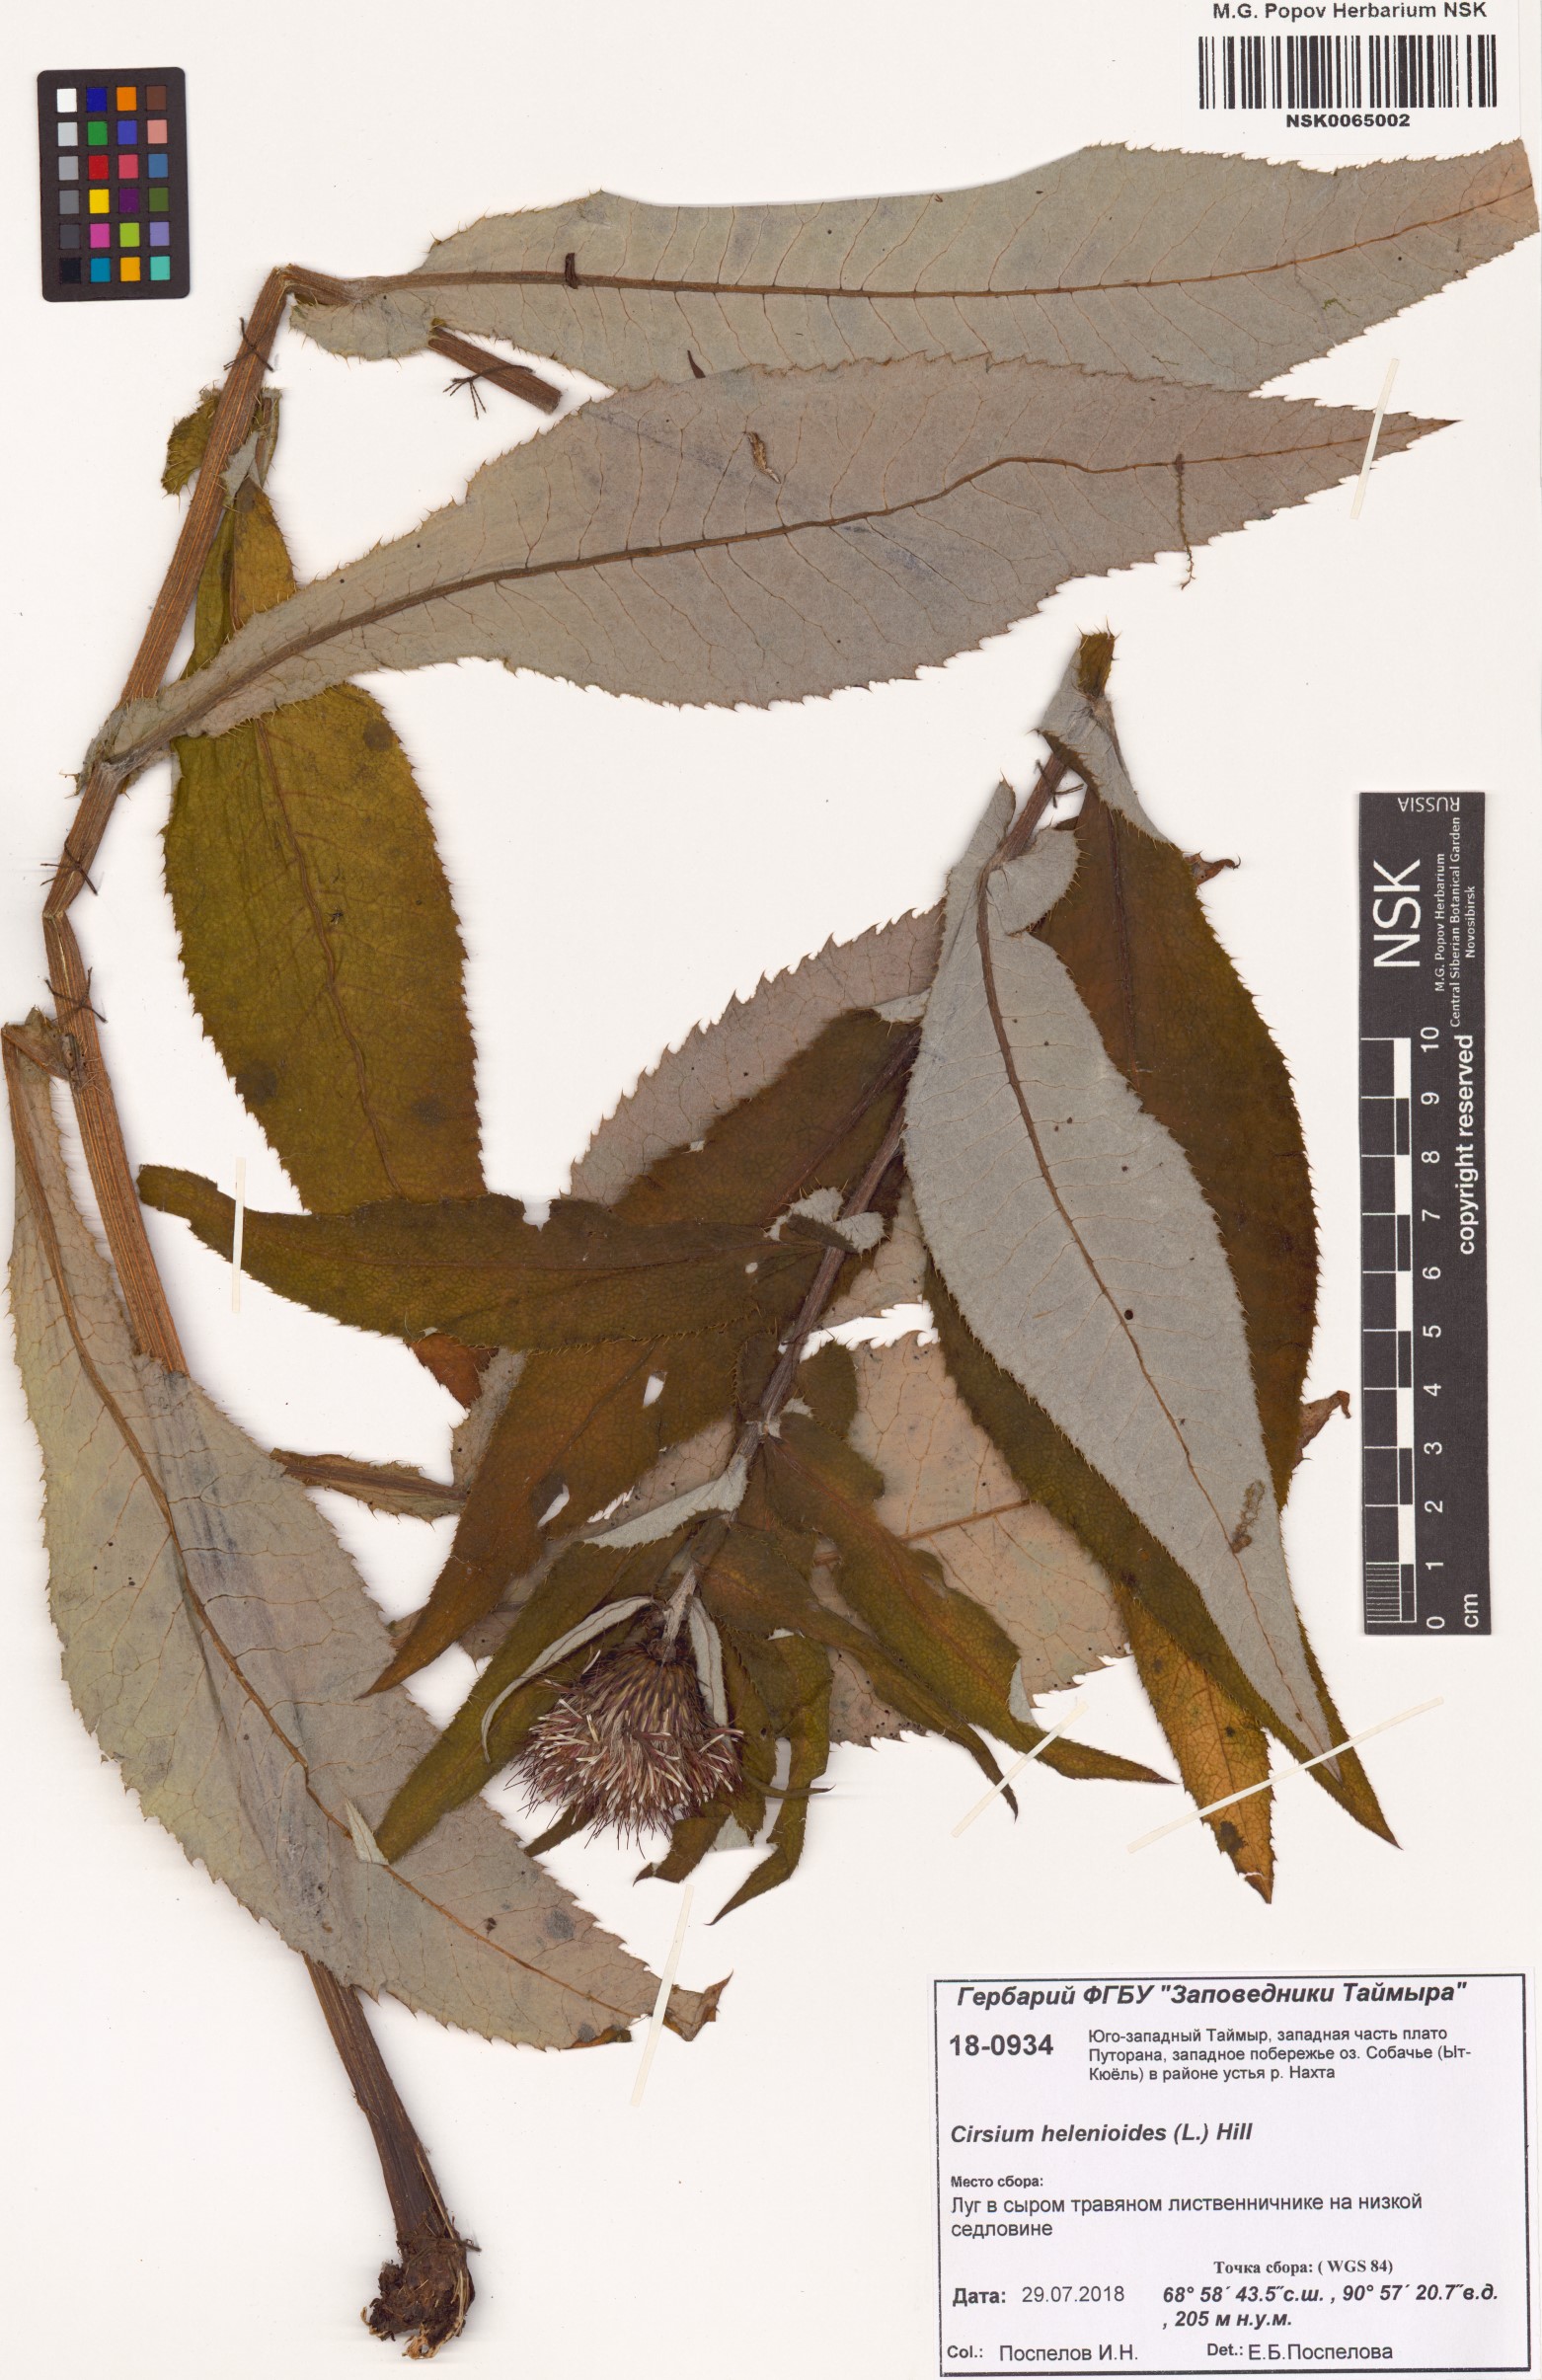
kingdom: Plantae
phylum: Tracheophyta
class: Magnoliopsida
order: Asterales
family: Asteraceae
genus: Cirsium
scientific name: Cirsium helenioides
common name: Melancholy thistle
